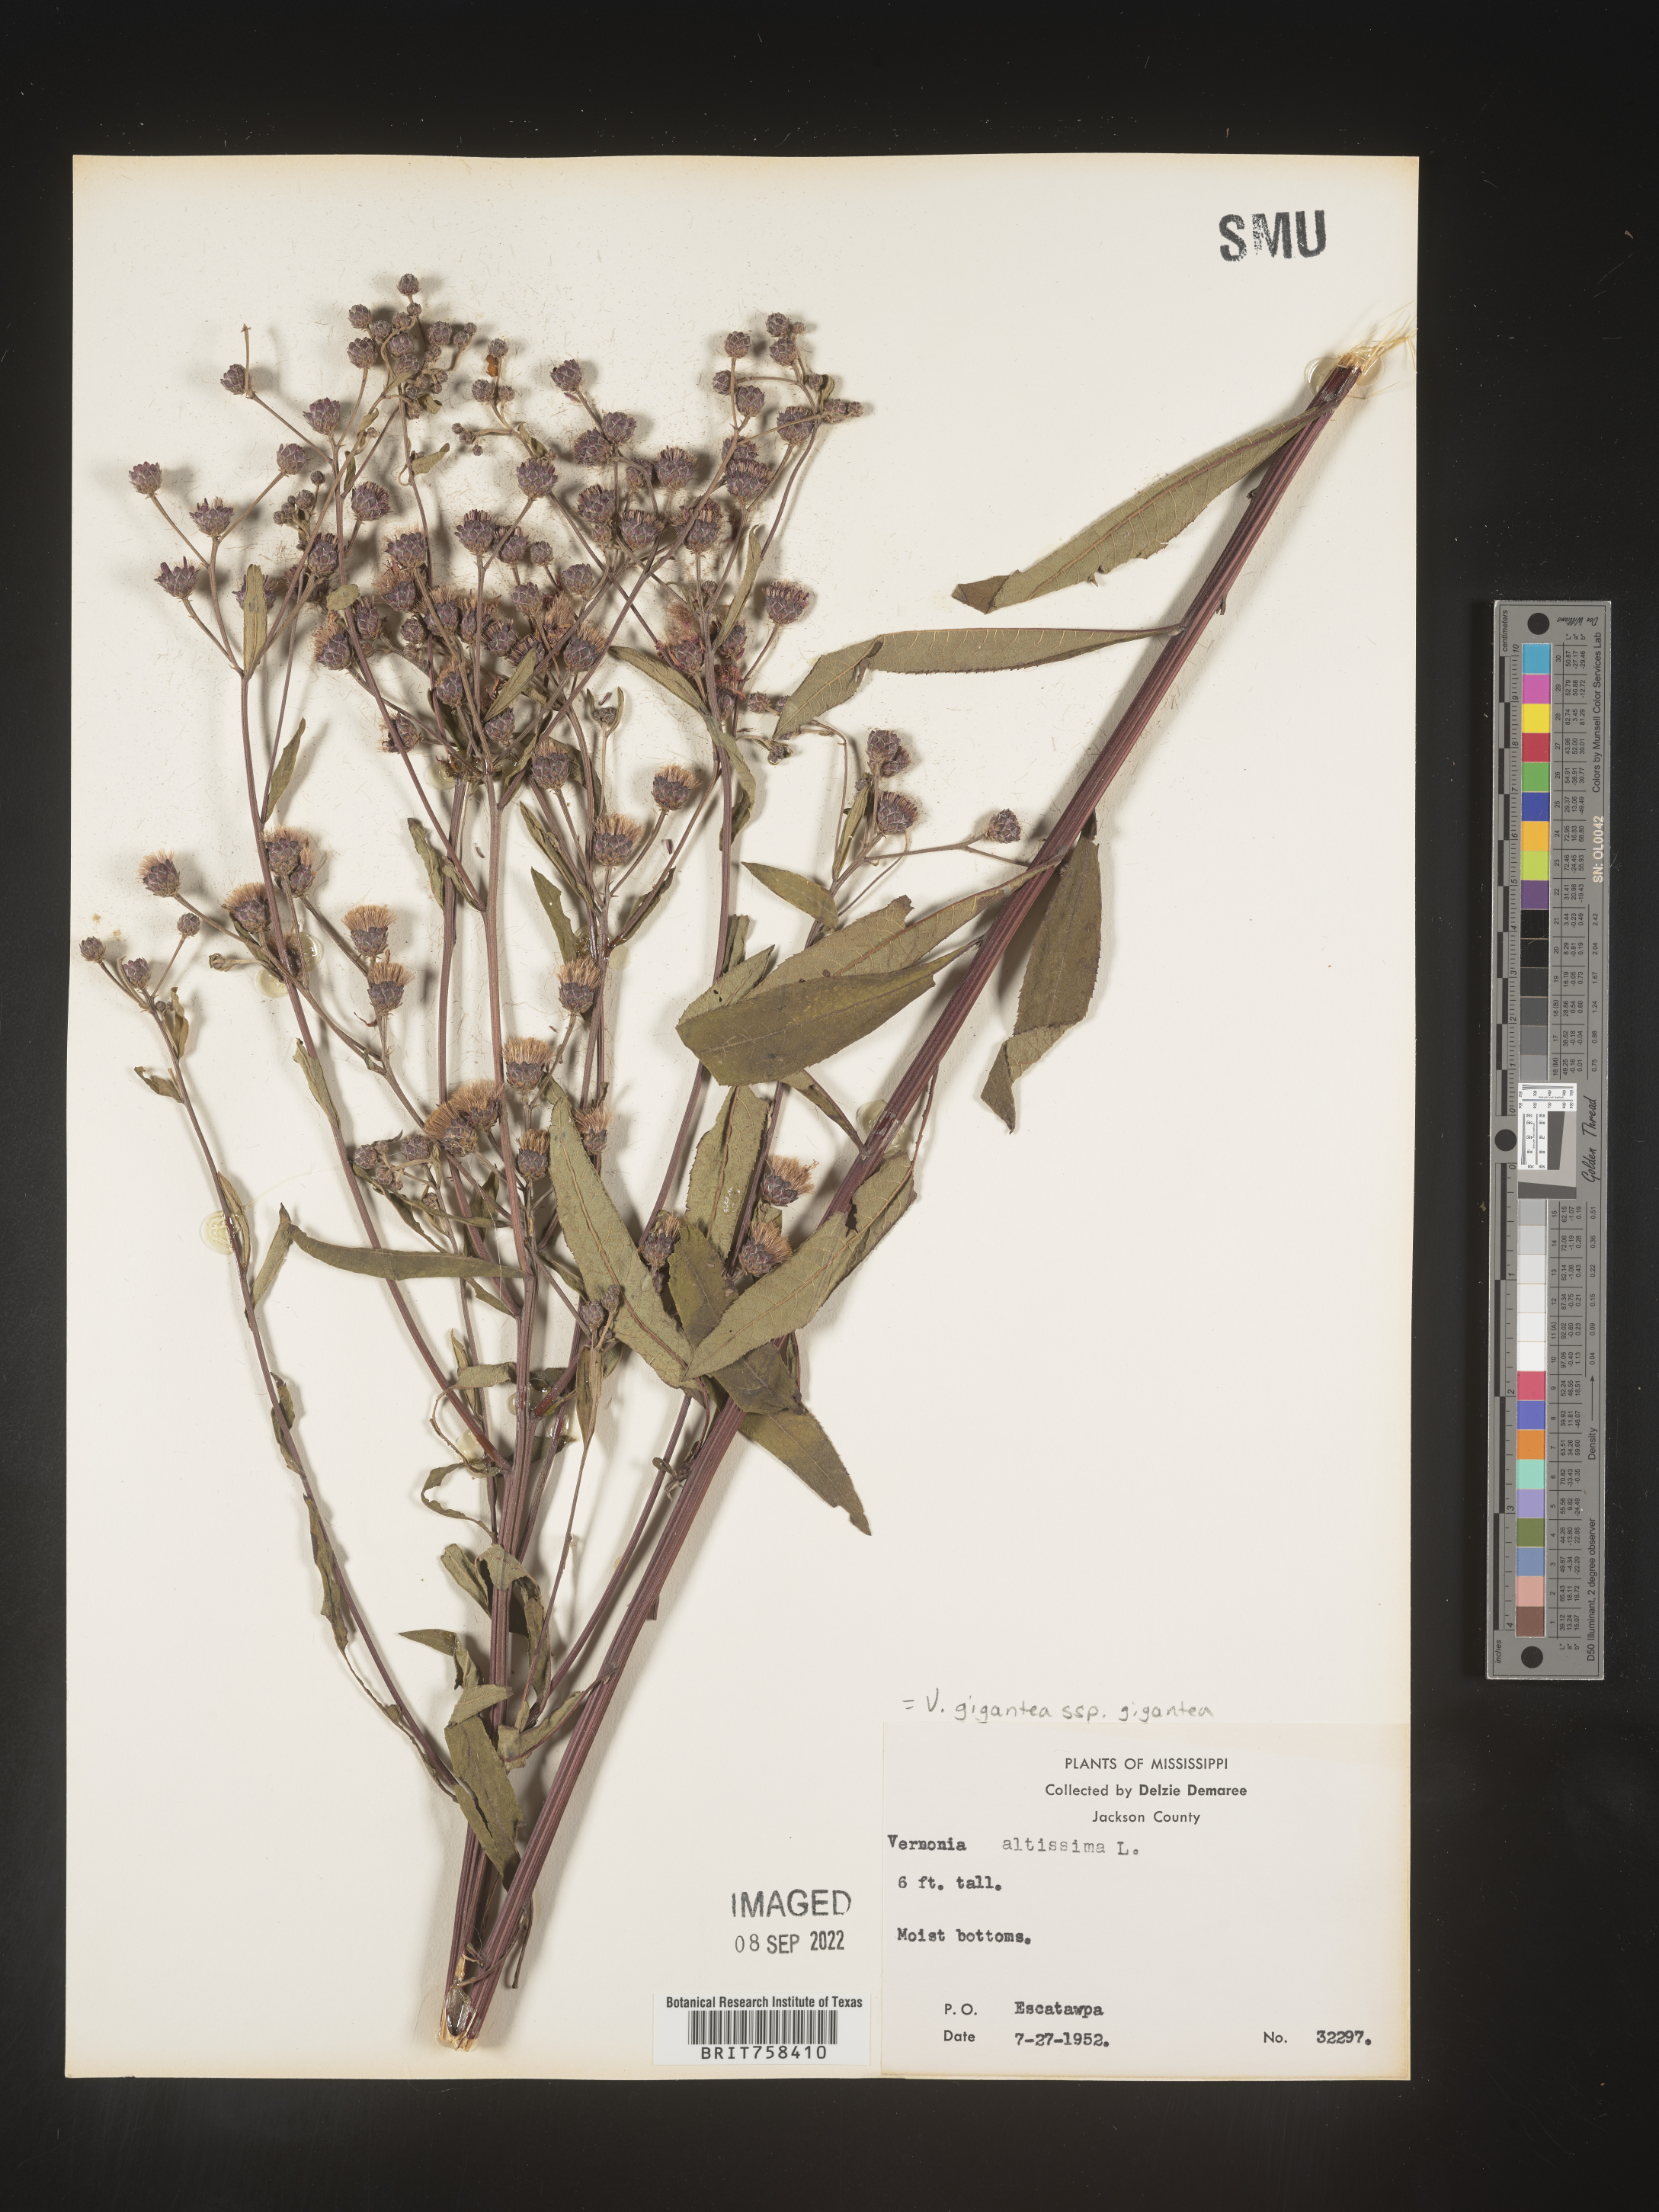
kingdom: Plantae
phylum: Tracheophyta
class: Magnoliopsida
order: Asterales
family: Asteraceae
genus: Vernonia
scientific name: Vernonia gigantea
